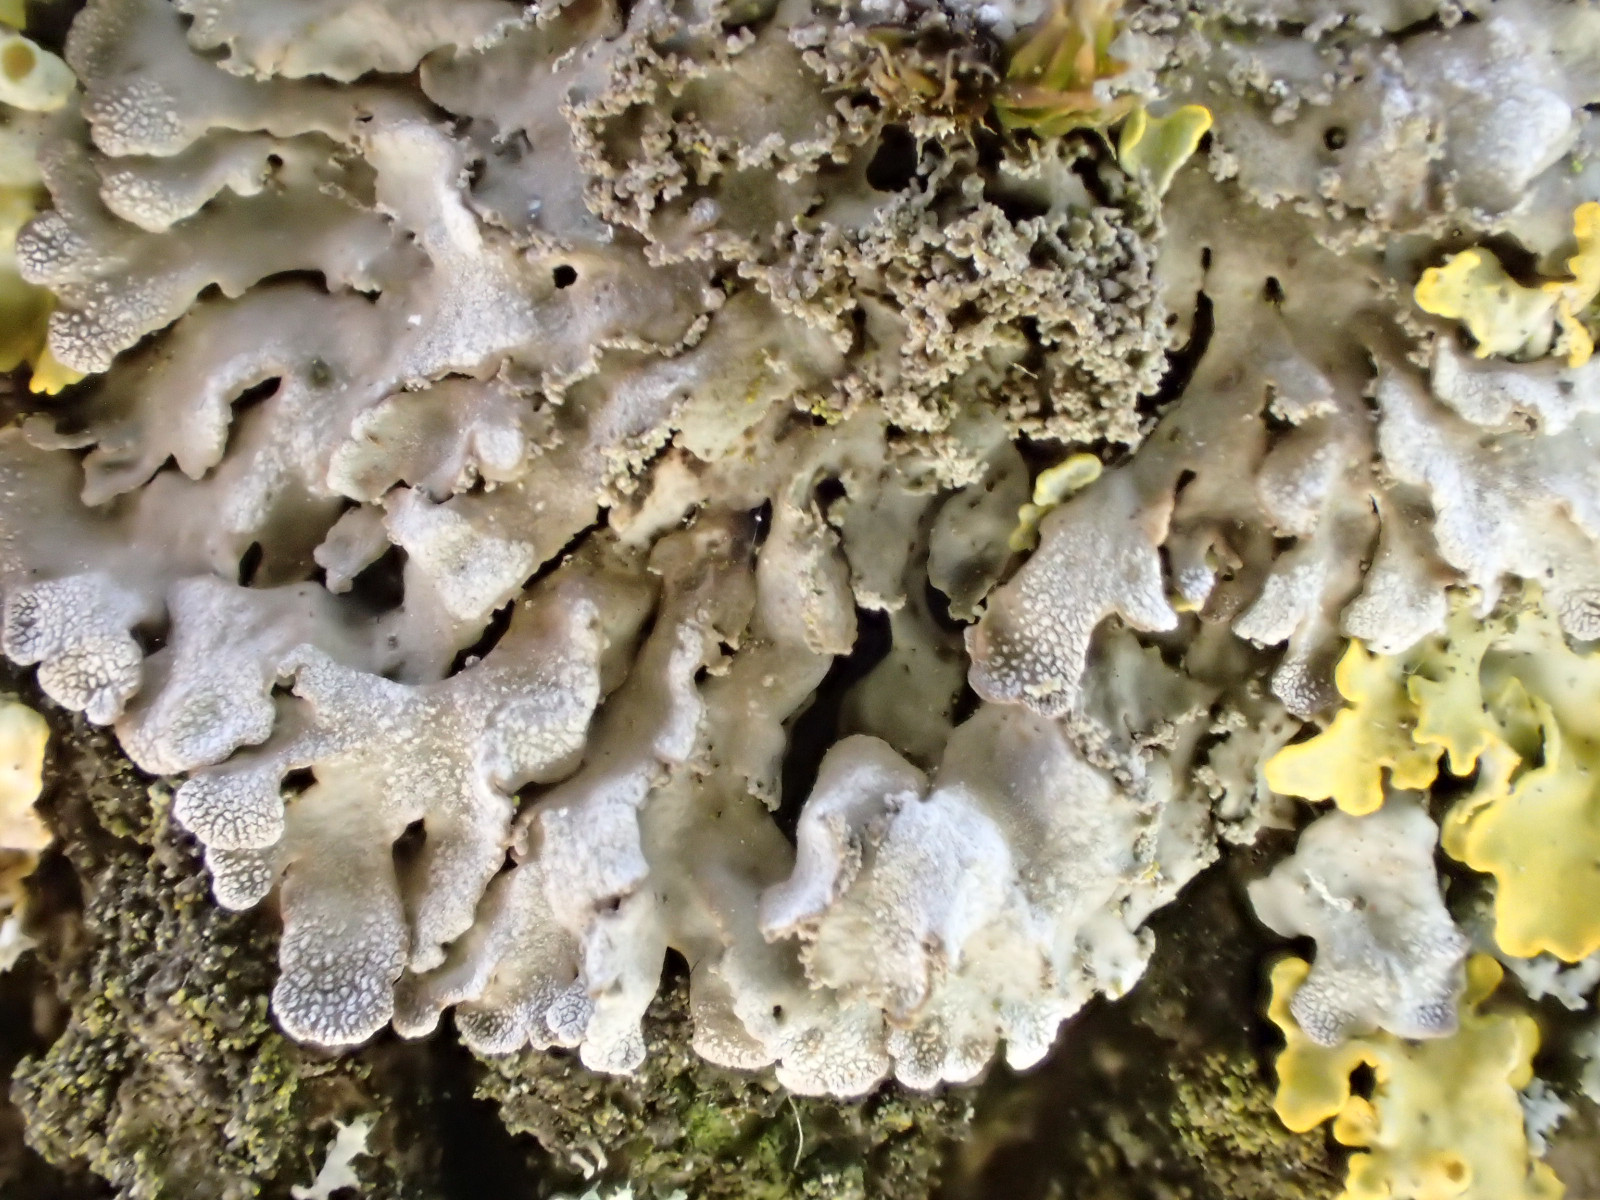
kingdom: Fungi
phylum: Ascomycota
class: Lecanoromycetes
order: Caliciales
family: Physciaceae
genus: Poeltonia
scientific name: Poeltonia grisea
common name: hvidgrå dugrosetlav
